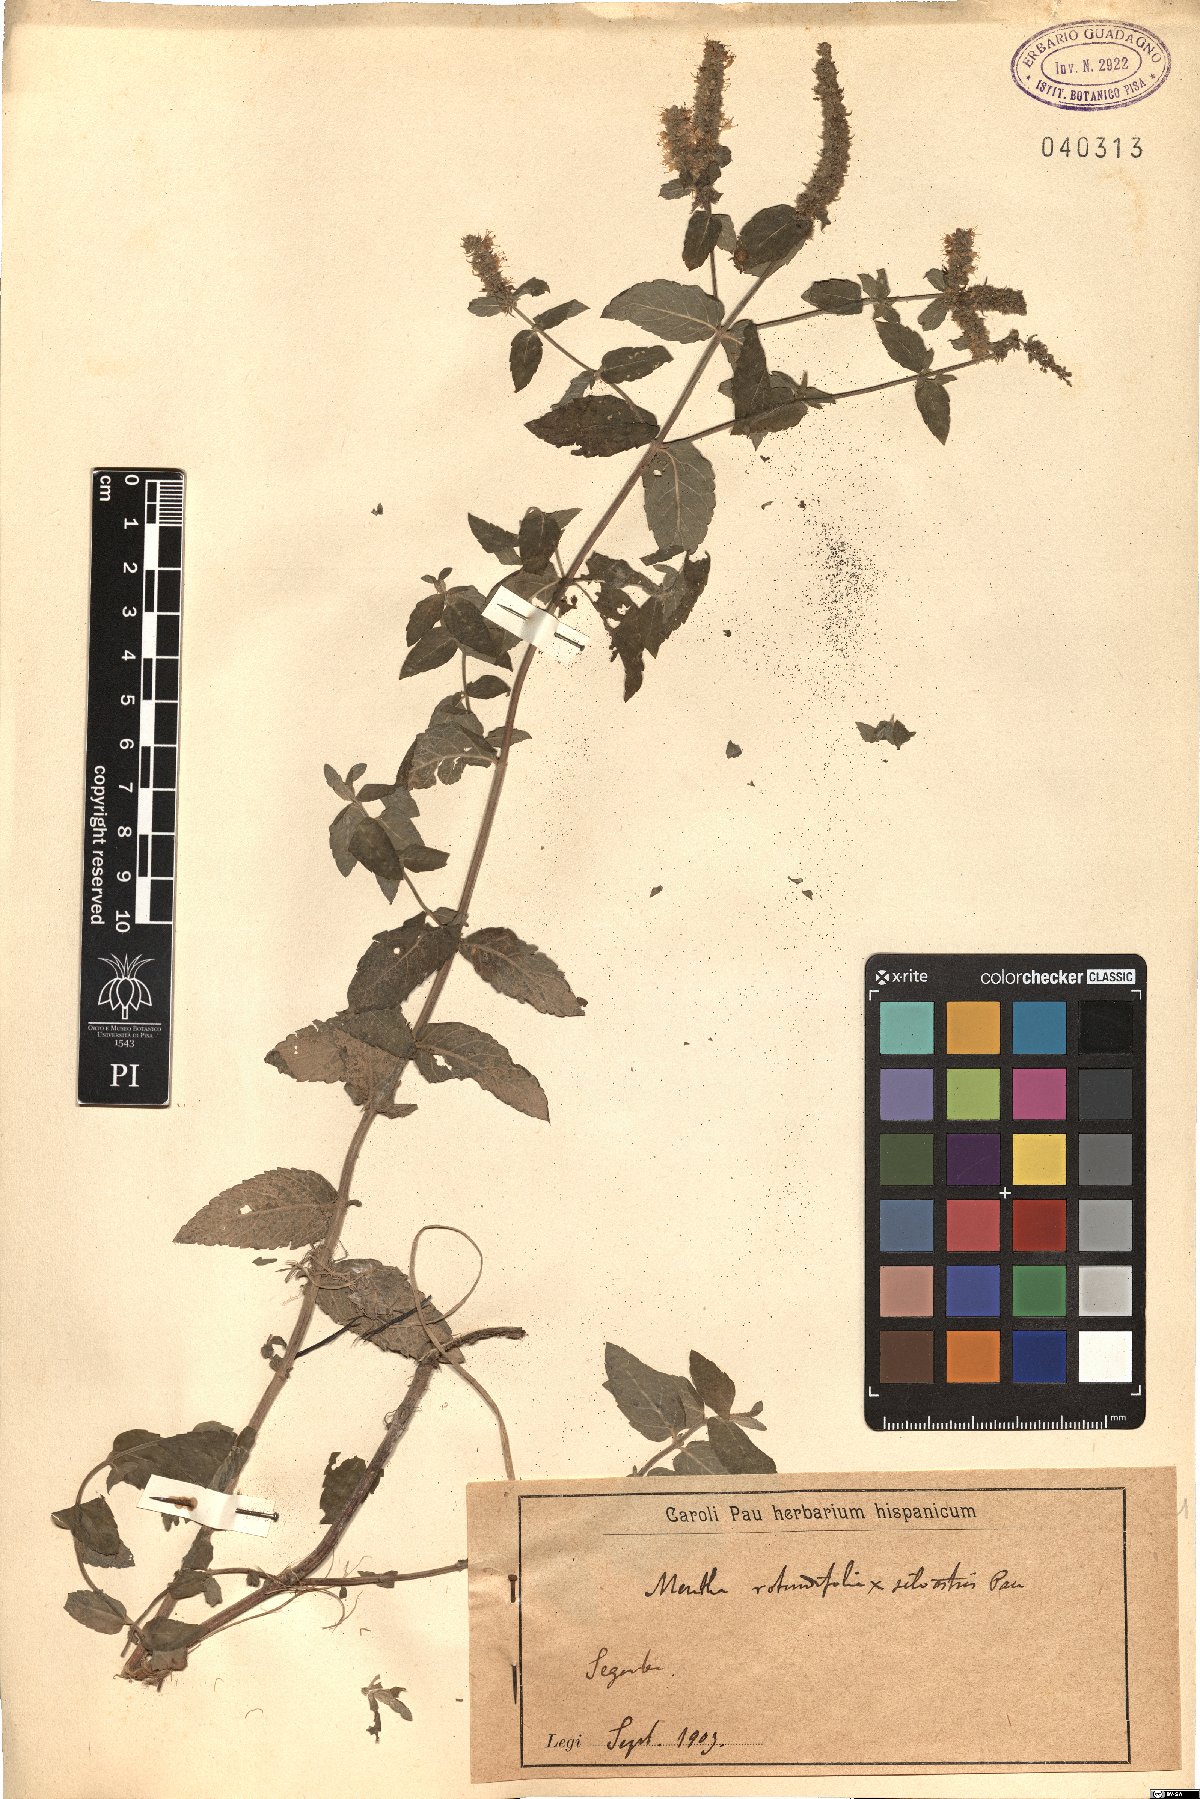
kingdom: Plantae
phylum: Tracheophyta
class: Magnoliopsida
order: Lamiales
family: Lamiaceae
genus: Mentha
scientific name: Mentha rotundifolia
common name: Bigleaf mint
